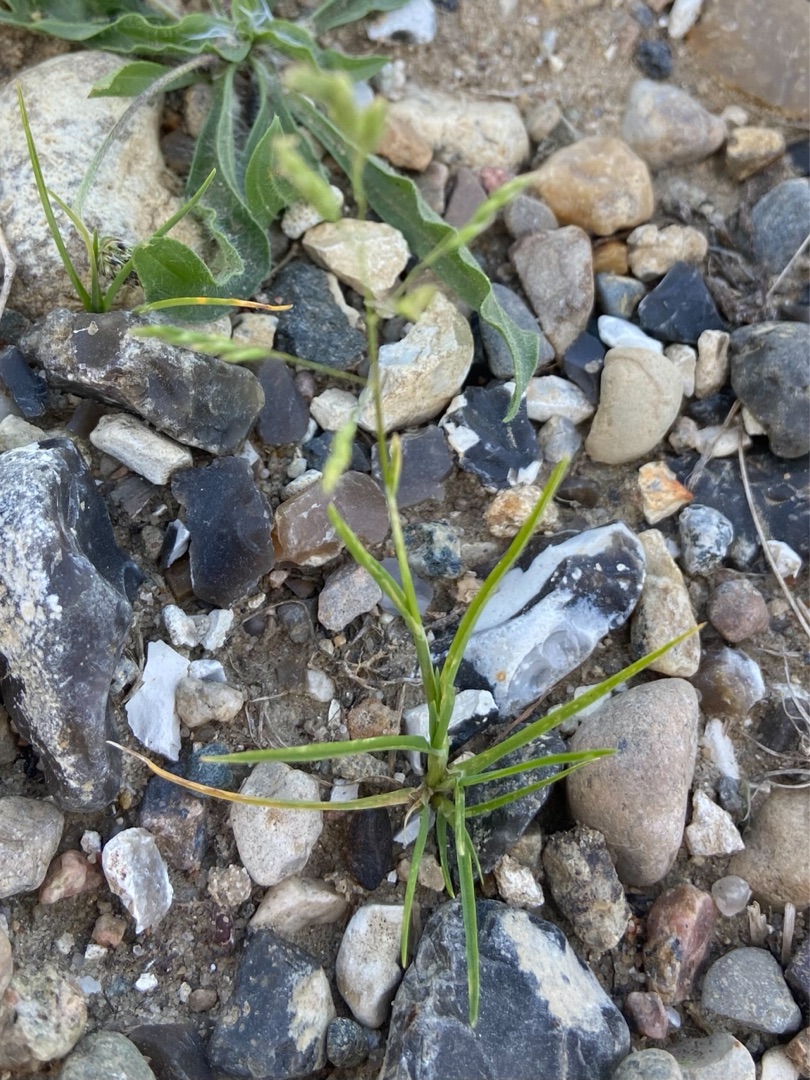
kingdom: Plantae
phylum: Tracheophyta
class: Liliopsida
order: Poales
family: Poaceae
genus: Poa
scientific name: Poa annua
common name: Enårig rapgræs
